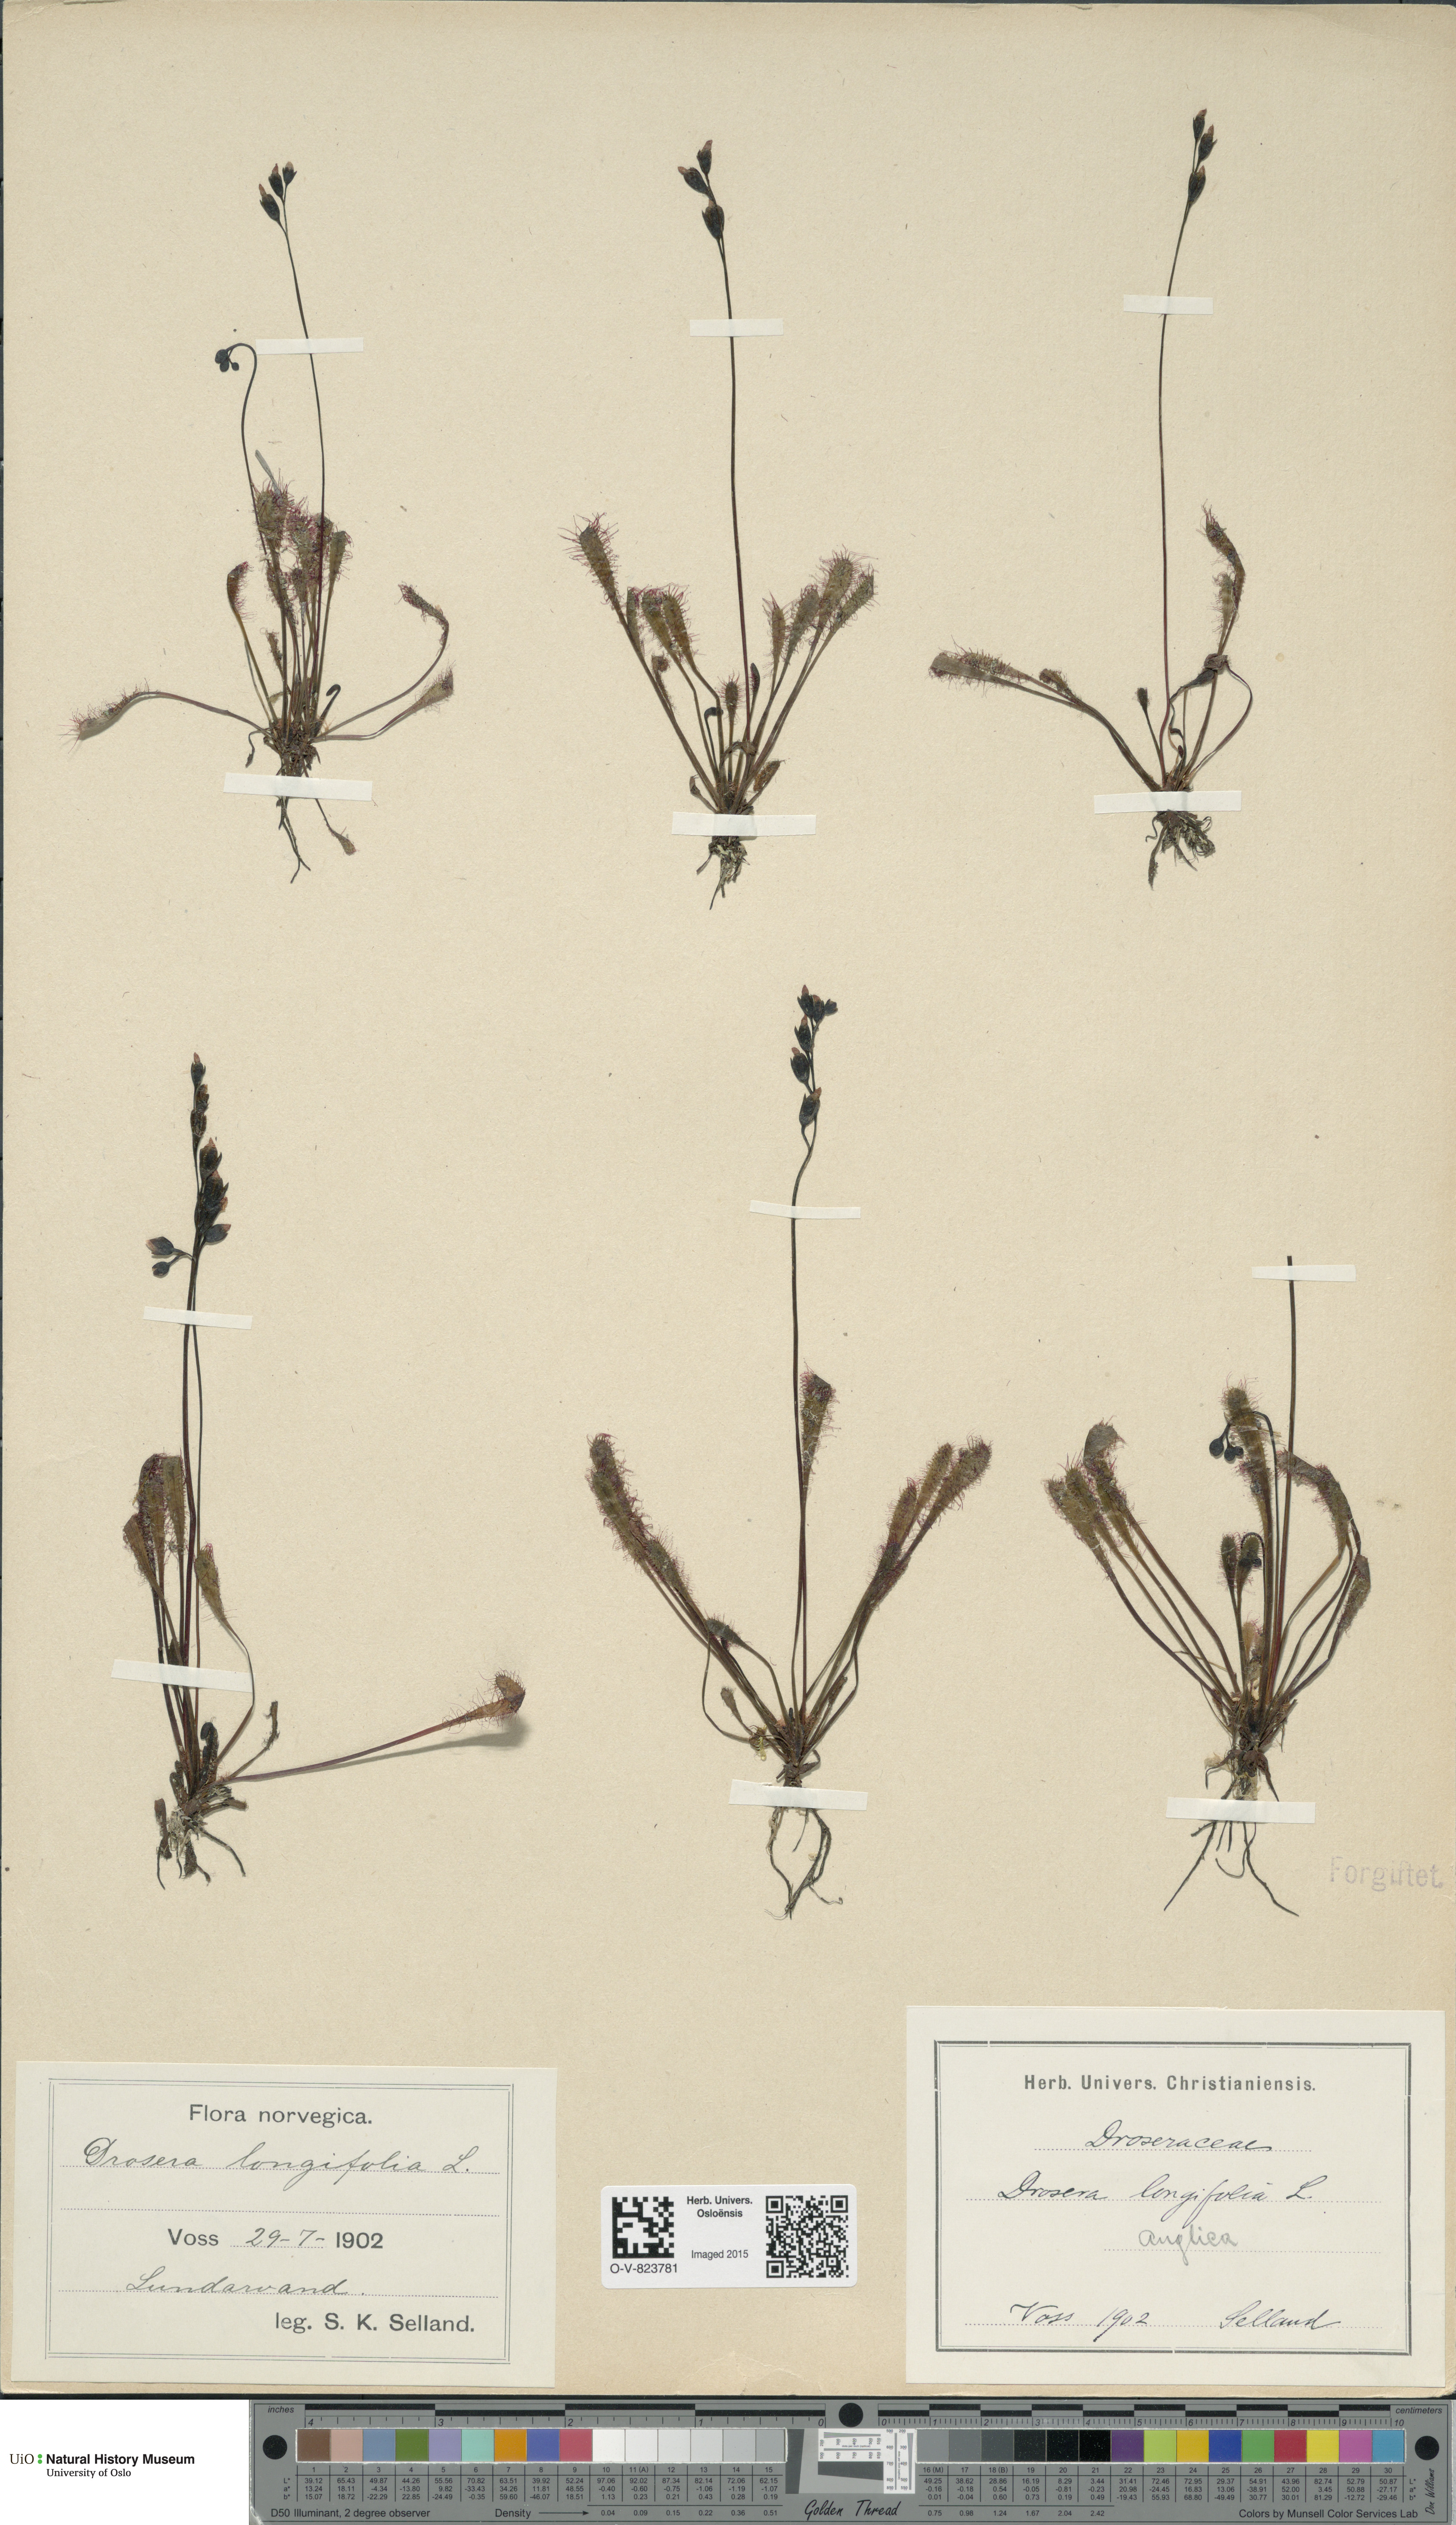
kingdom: Plantae
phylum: Tracheophyta
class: Magnoliopsida
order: Caryophyllales
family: Droseraceae
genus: Drosera
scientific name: Drosera anglica
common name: Great sundew
